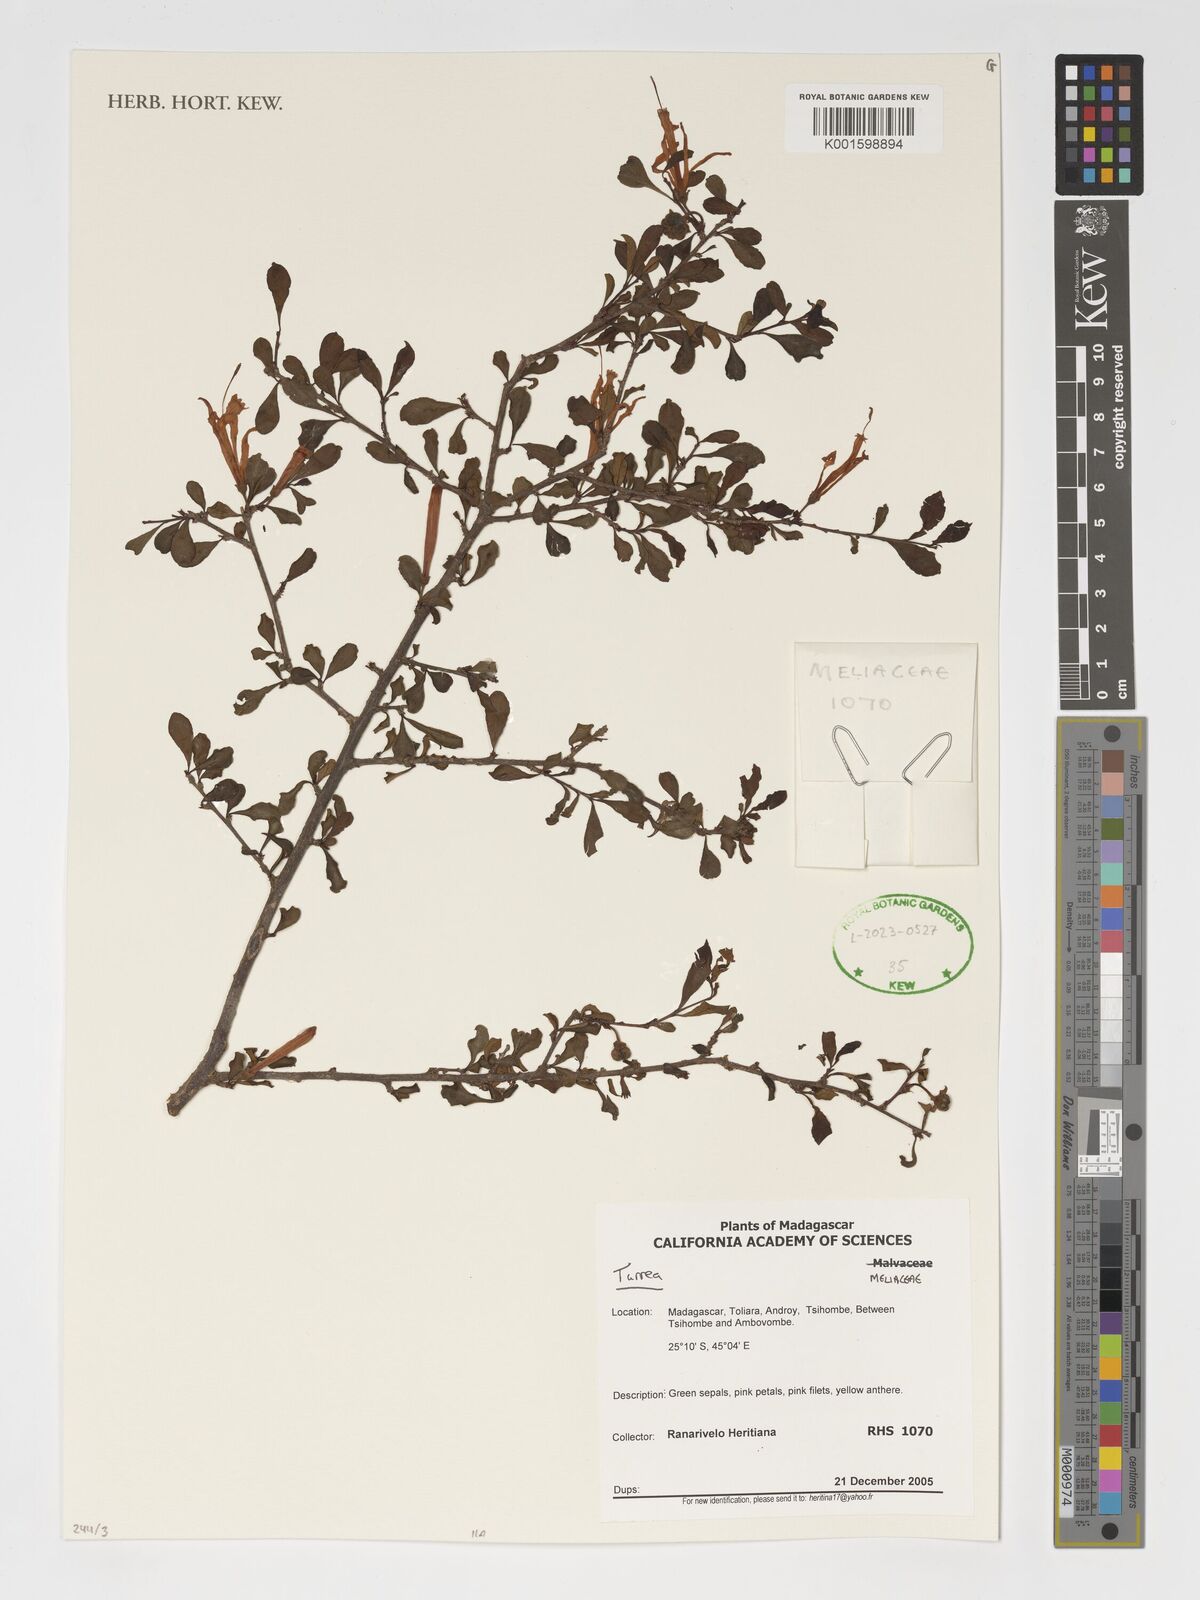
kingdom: Plantae
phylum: Tracheophyta
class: Magnoliopsida
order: Sapindales
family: Meliaceae
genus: Turraea
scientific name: Turraea
